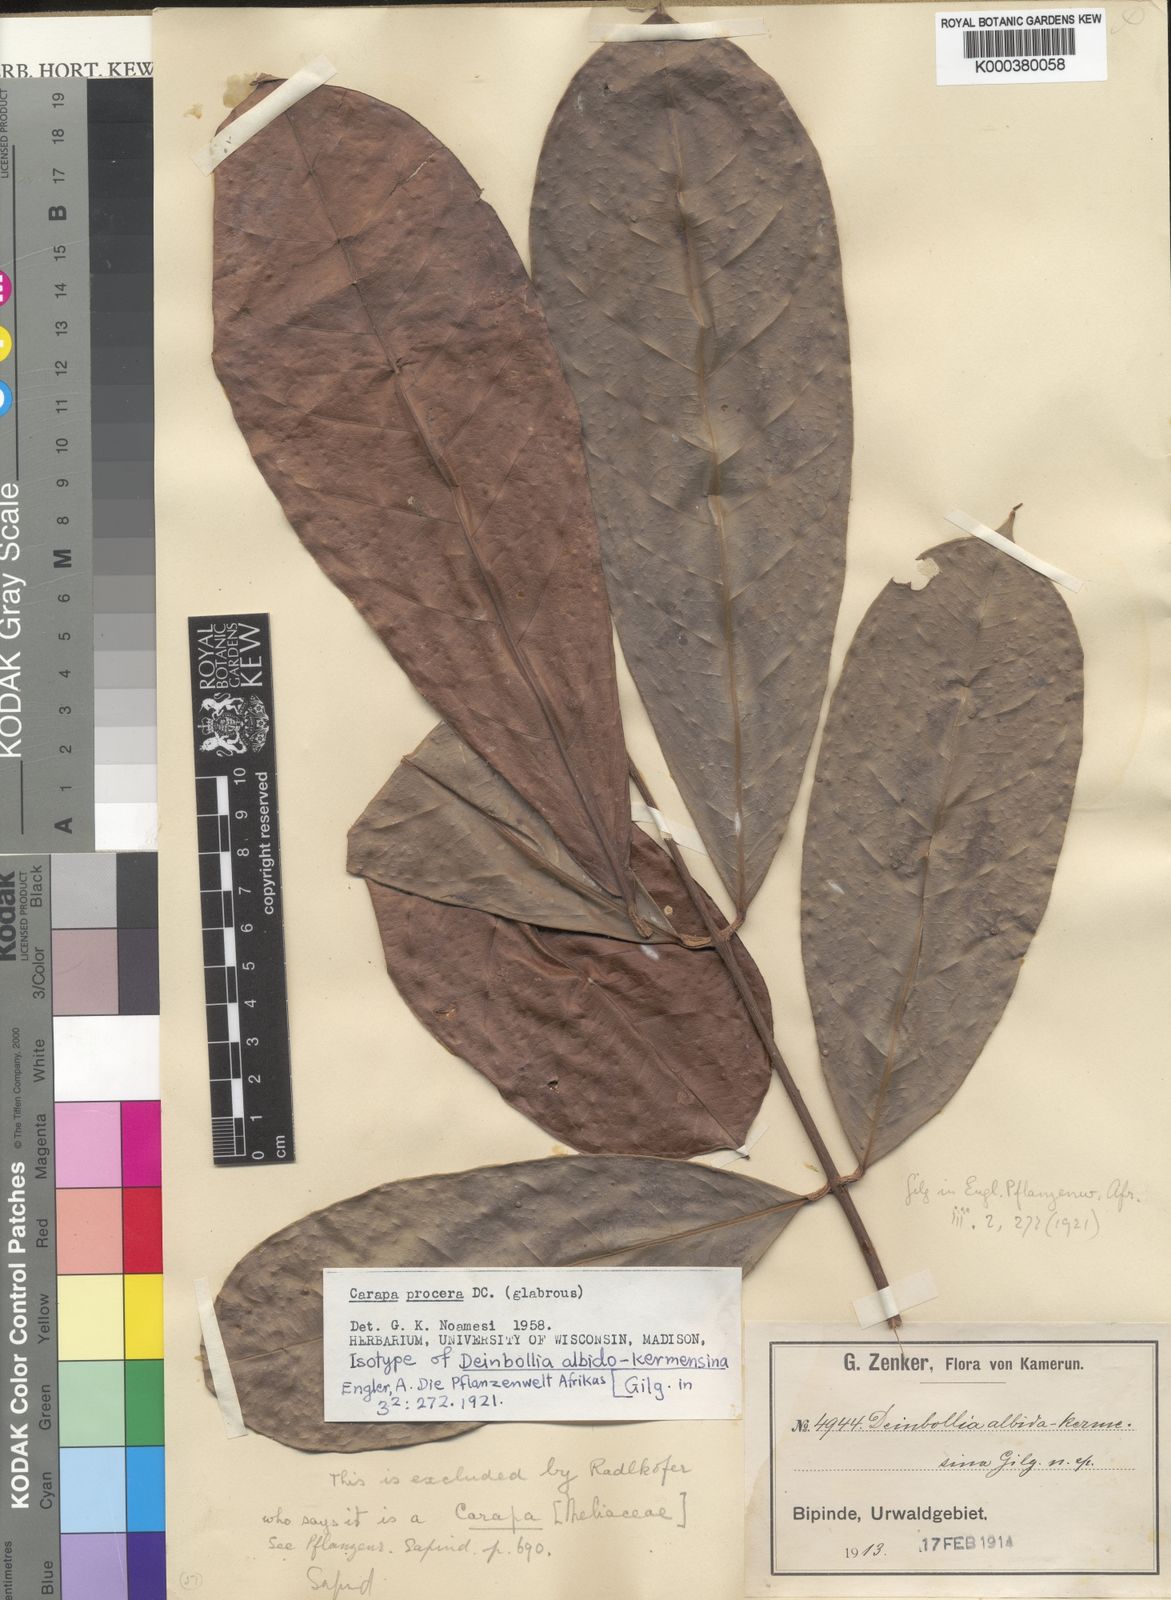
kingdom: Plantae
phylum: Tracheophyta
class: Magnoliopsida
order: Sapindales
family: Meliaceae
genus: Carapa
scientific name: Carapa procera
